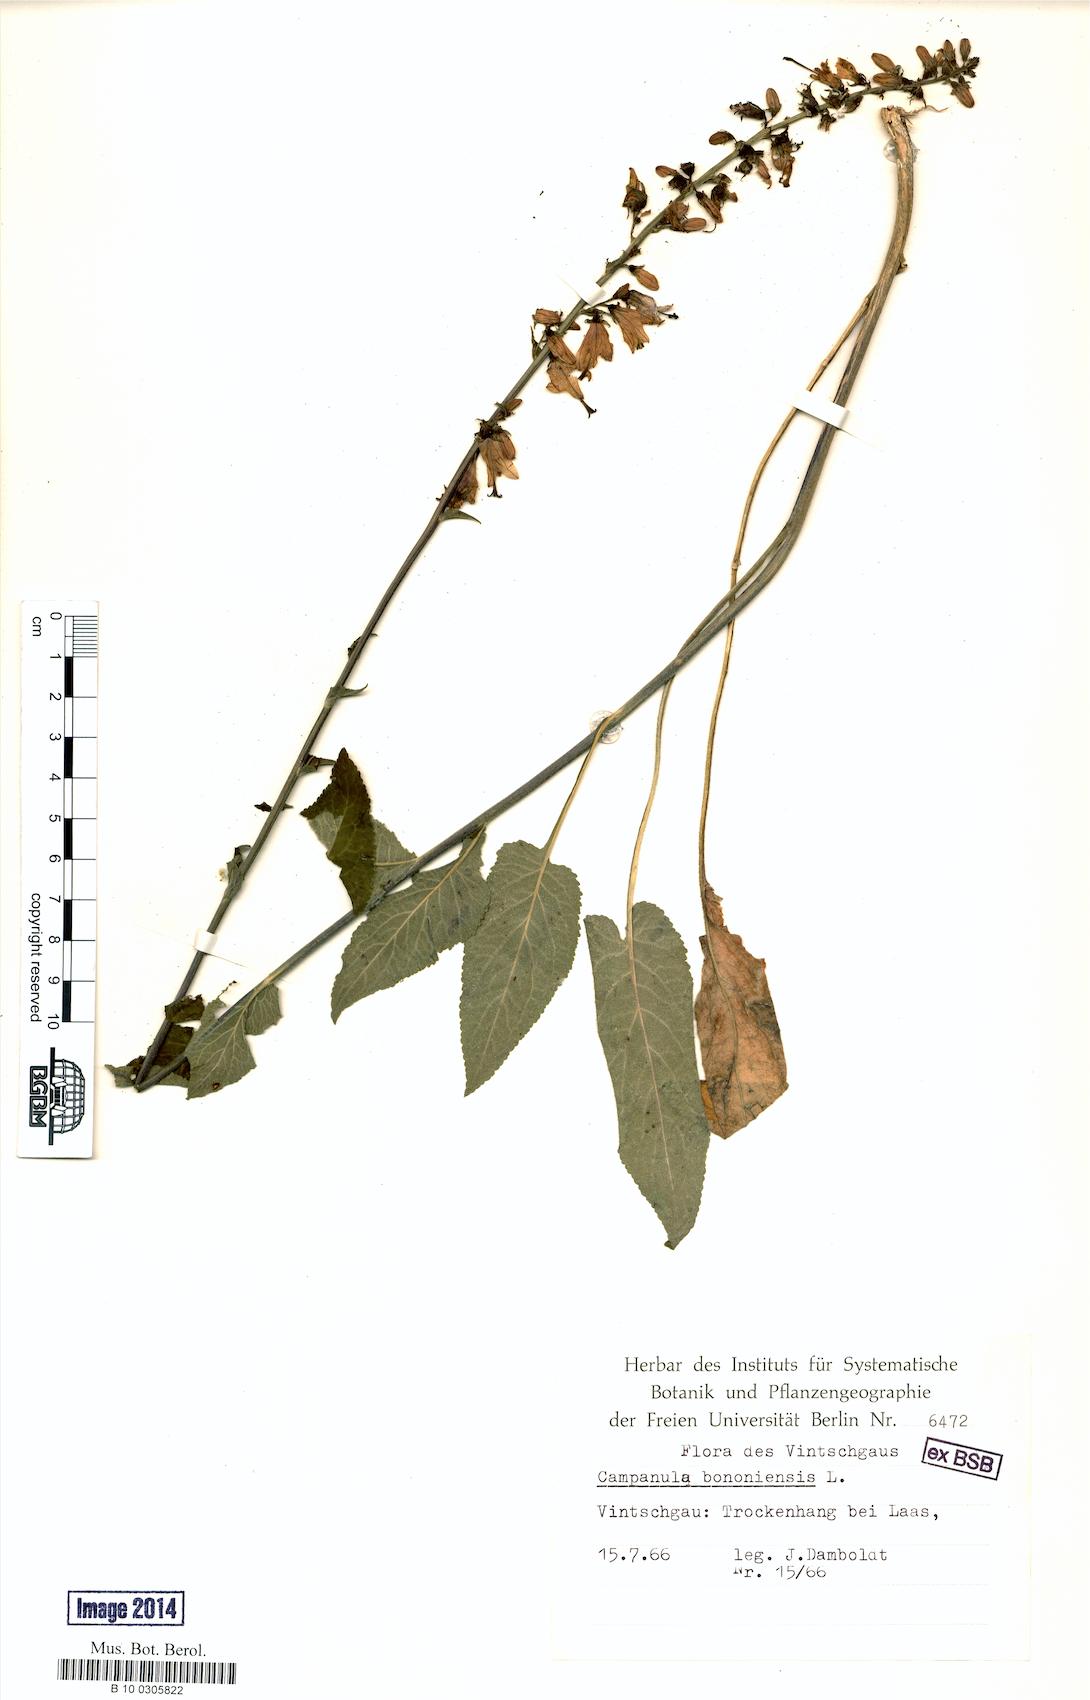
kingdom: Plantae
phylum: Tracheophyta
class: Magnoliopsida
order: Asterales
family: Campanulaceae
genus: Campanula
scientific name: Campanula bononiensis
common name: Pale bellflower
